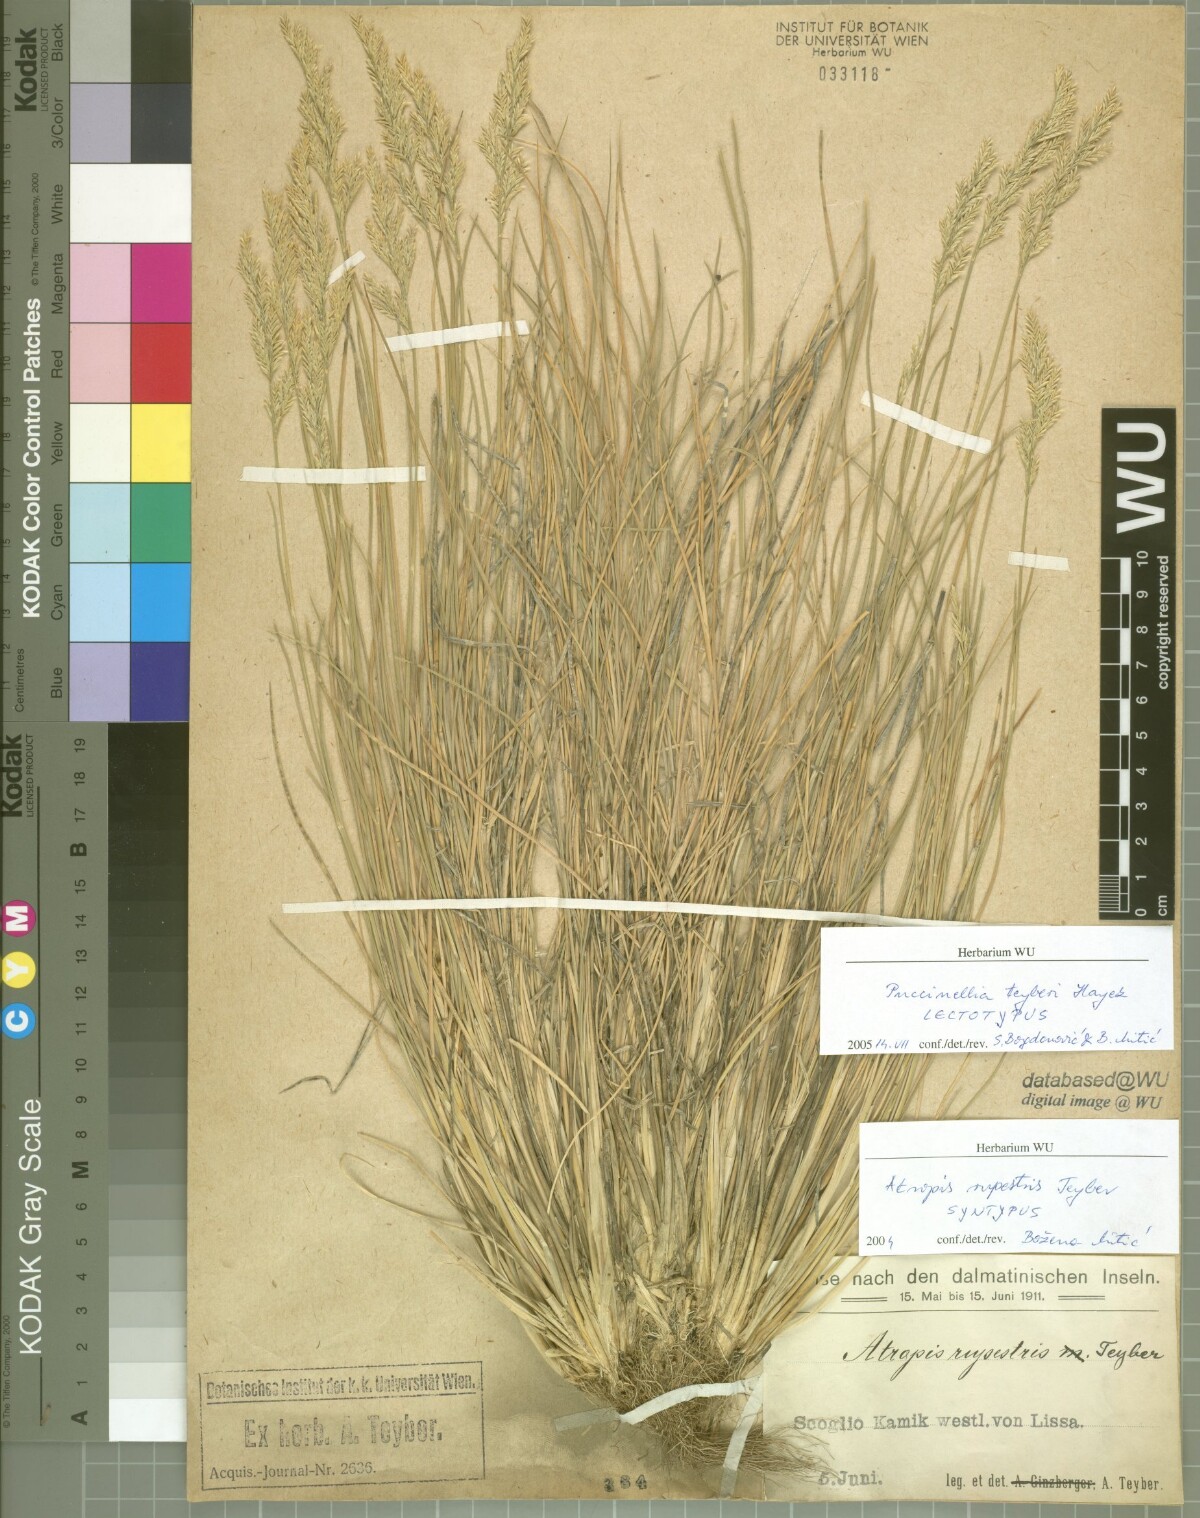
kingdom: Plantae
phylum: Tracheophyta
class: Liliopsida
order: Poales
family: Poaceae
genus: Puccinellia
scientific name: Puccinellia festuciformis
